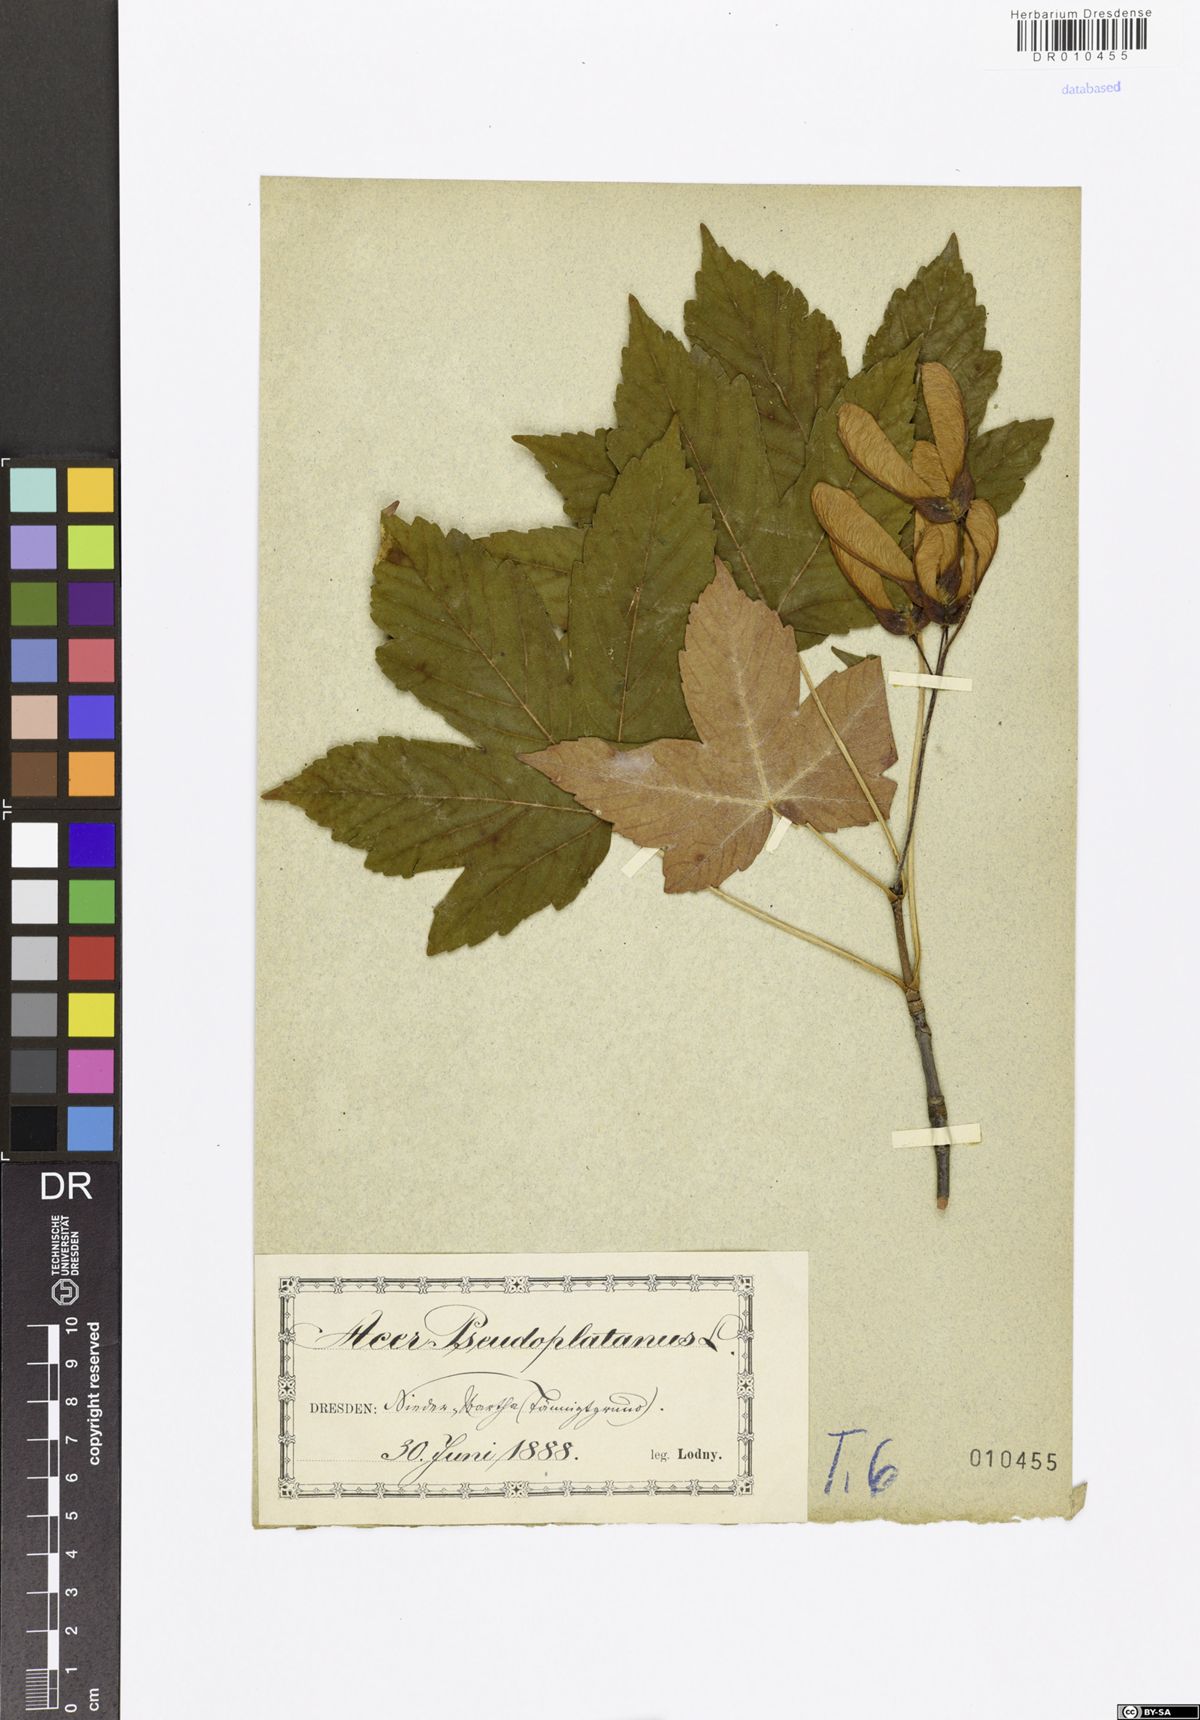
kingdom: Plantae
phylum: Tracheophyta
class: Magnoliopsida
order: Sapindales
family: Sapindaceae
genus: Acer
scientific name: Acer pseudoplatanus
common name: Sycamore
